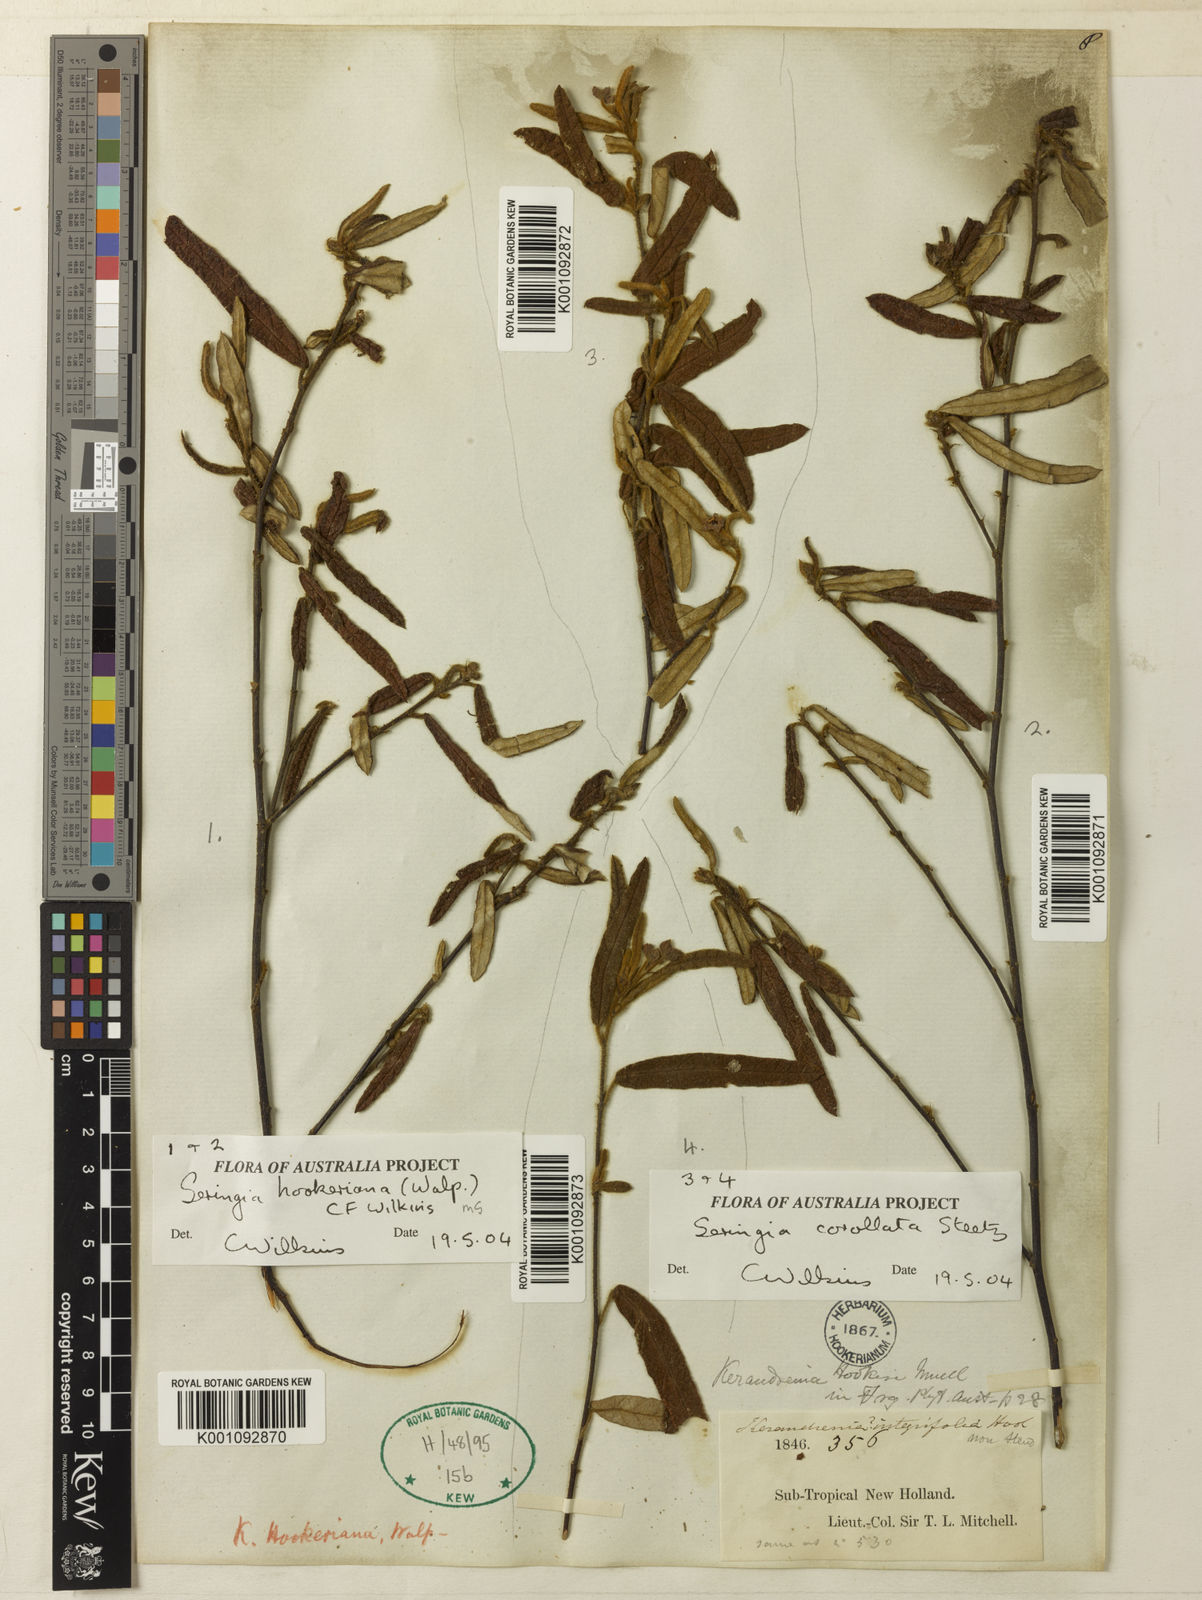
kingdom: Plantae
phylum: Tracheophyta
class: Magnoliopsida
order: Malvales
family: Malvaceae
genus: Seringia
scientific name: Seringia
